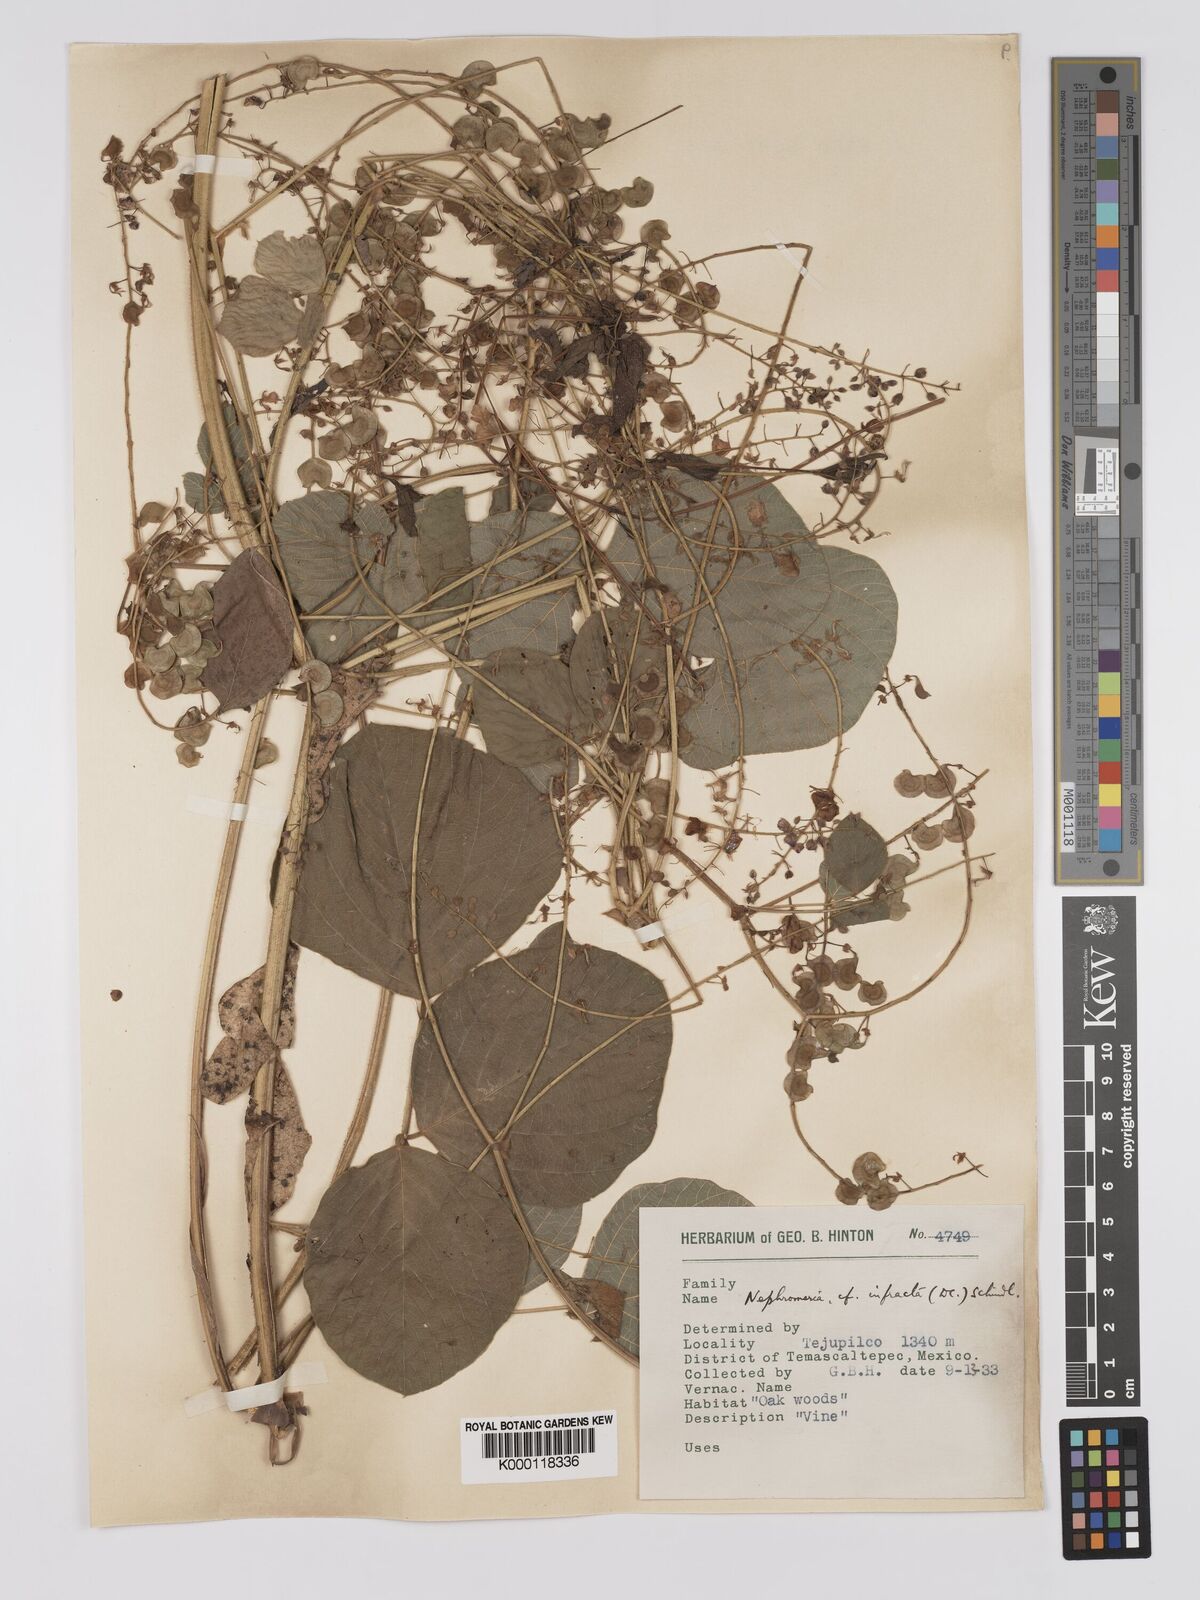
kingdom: Plantae
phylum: Tracheophyta
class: Magnoliopsida
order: Fabales
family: Fabaceae
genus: Desmodium
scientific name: Desmodium infractum
